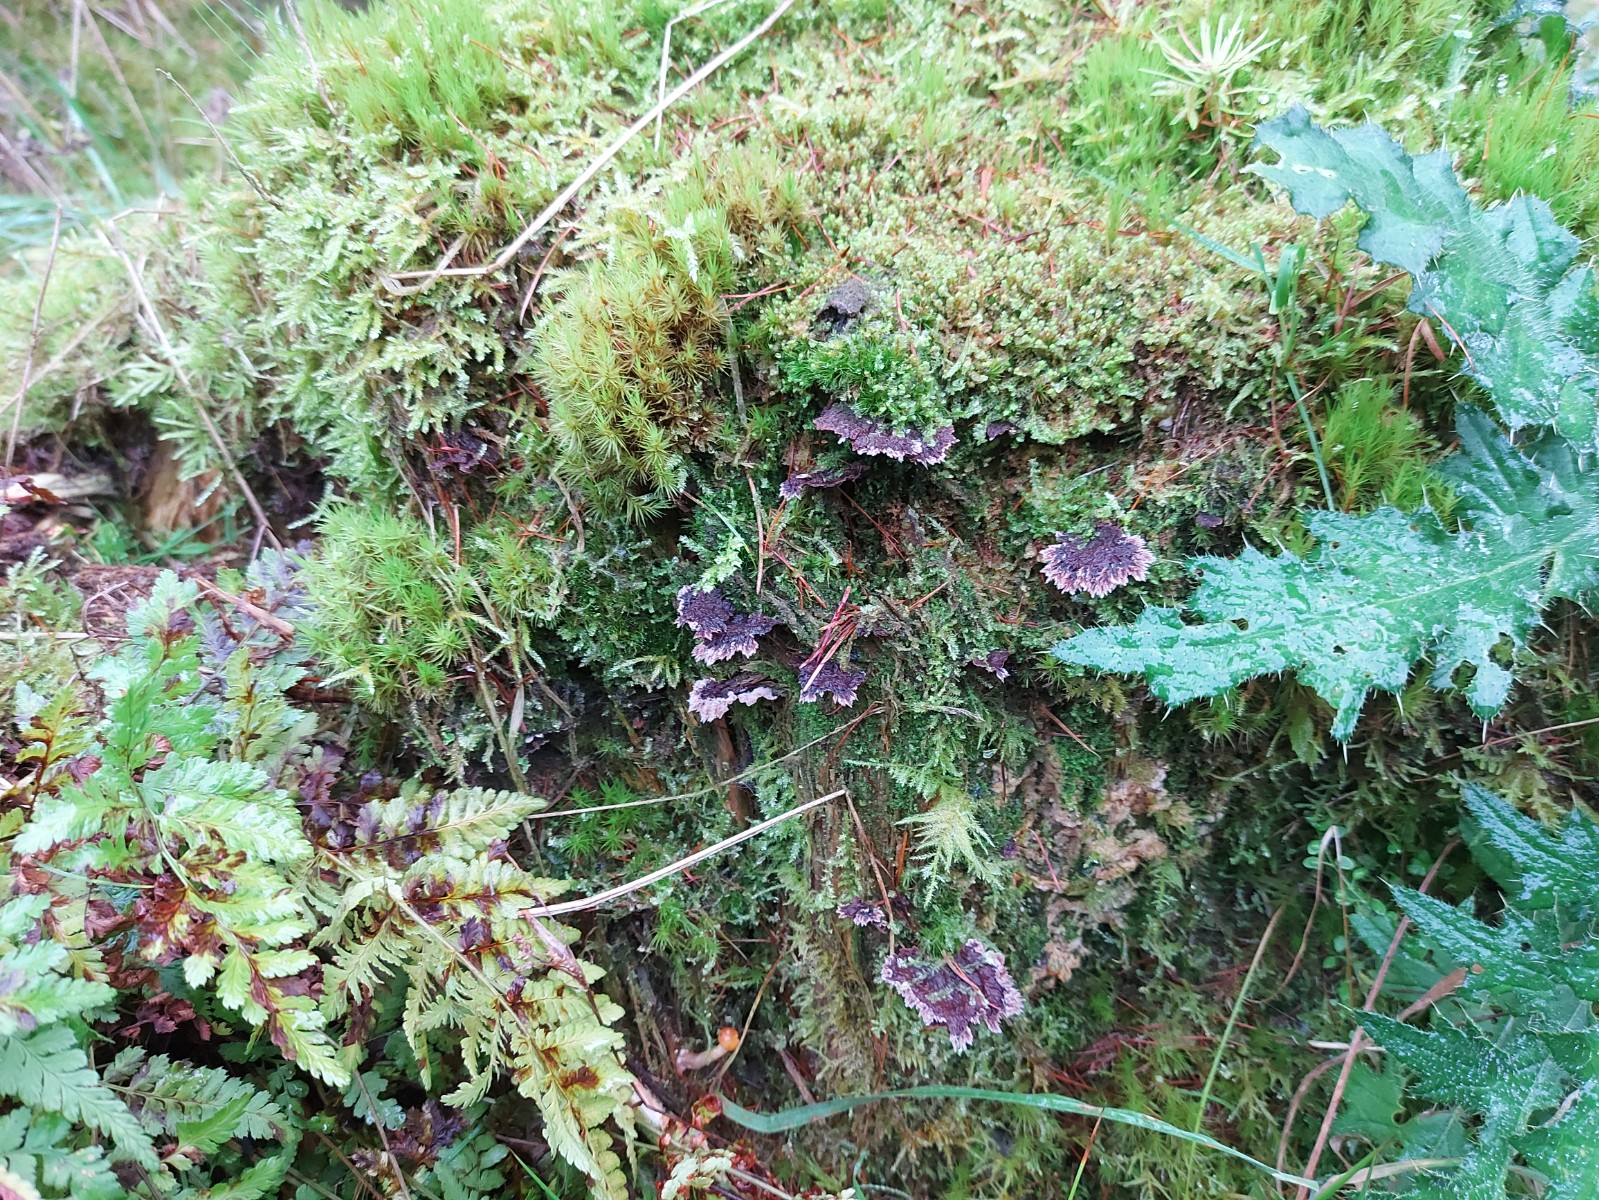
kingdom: Fungi
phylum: Basidiomycota
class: Agaricomycetes
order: Thelephorales
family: Thelephoraceae
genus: Thelephora
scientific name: Thelephora terrestris
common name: fliget frynsesvamp
